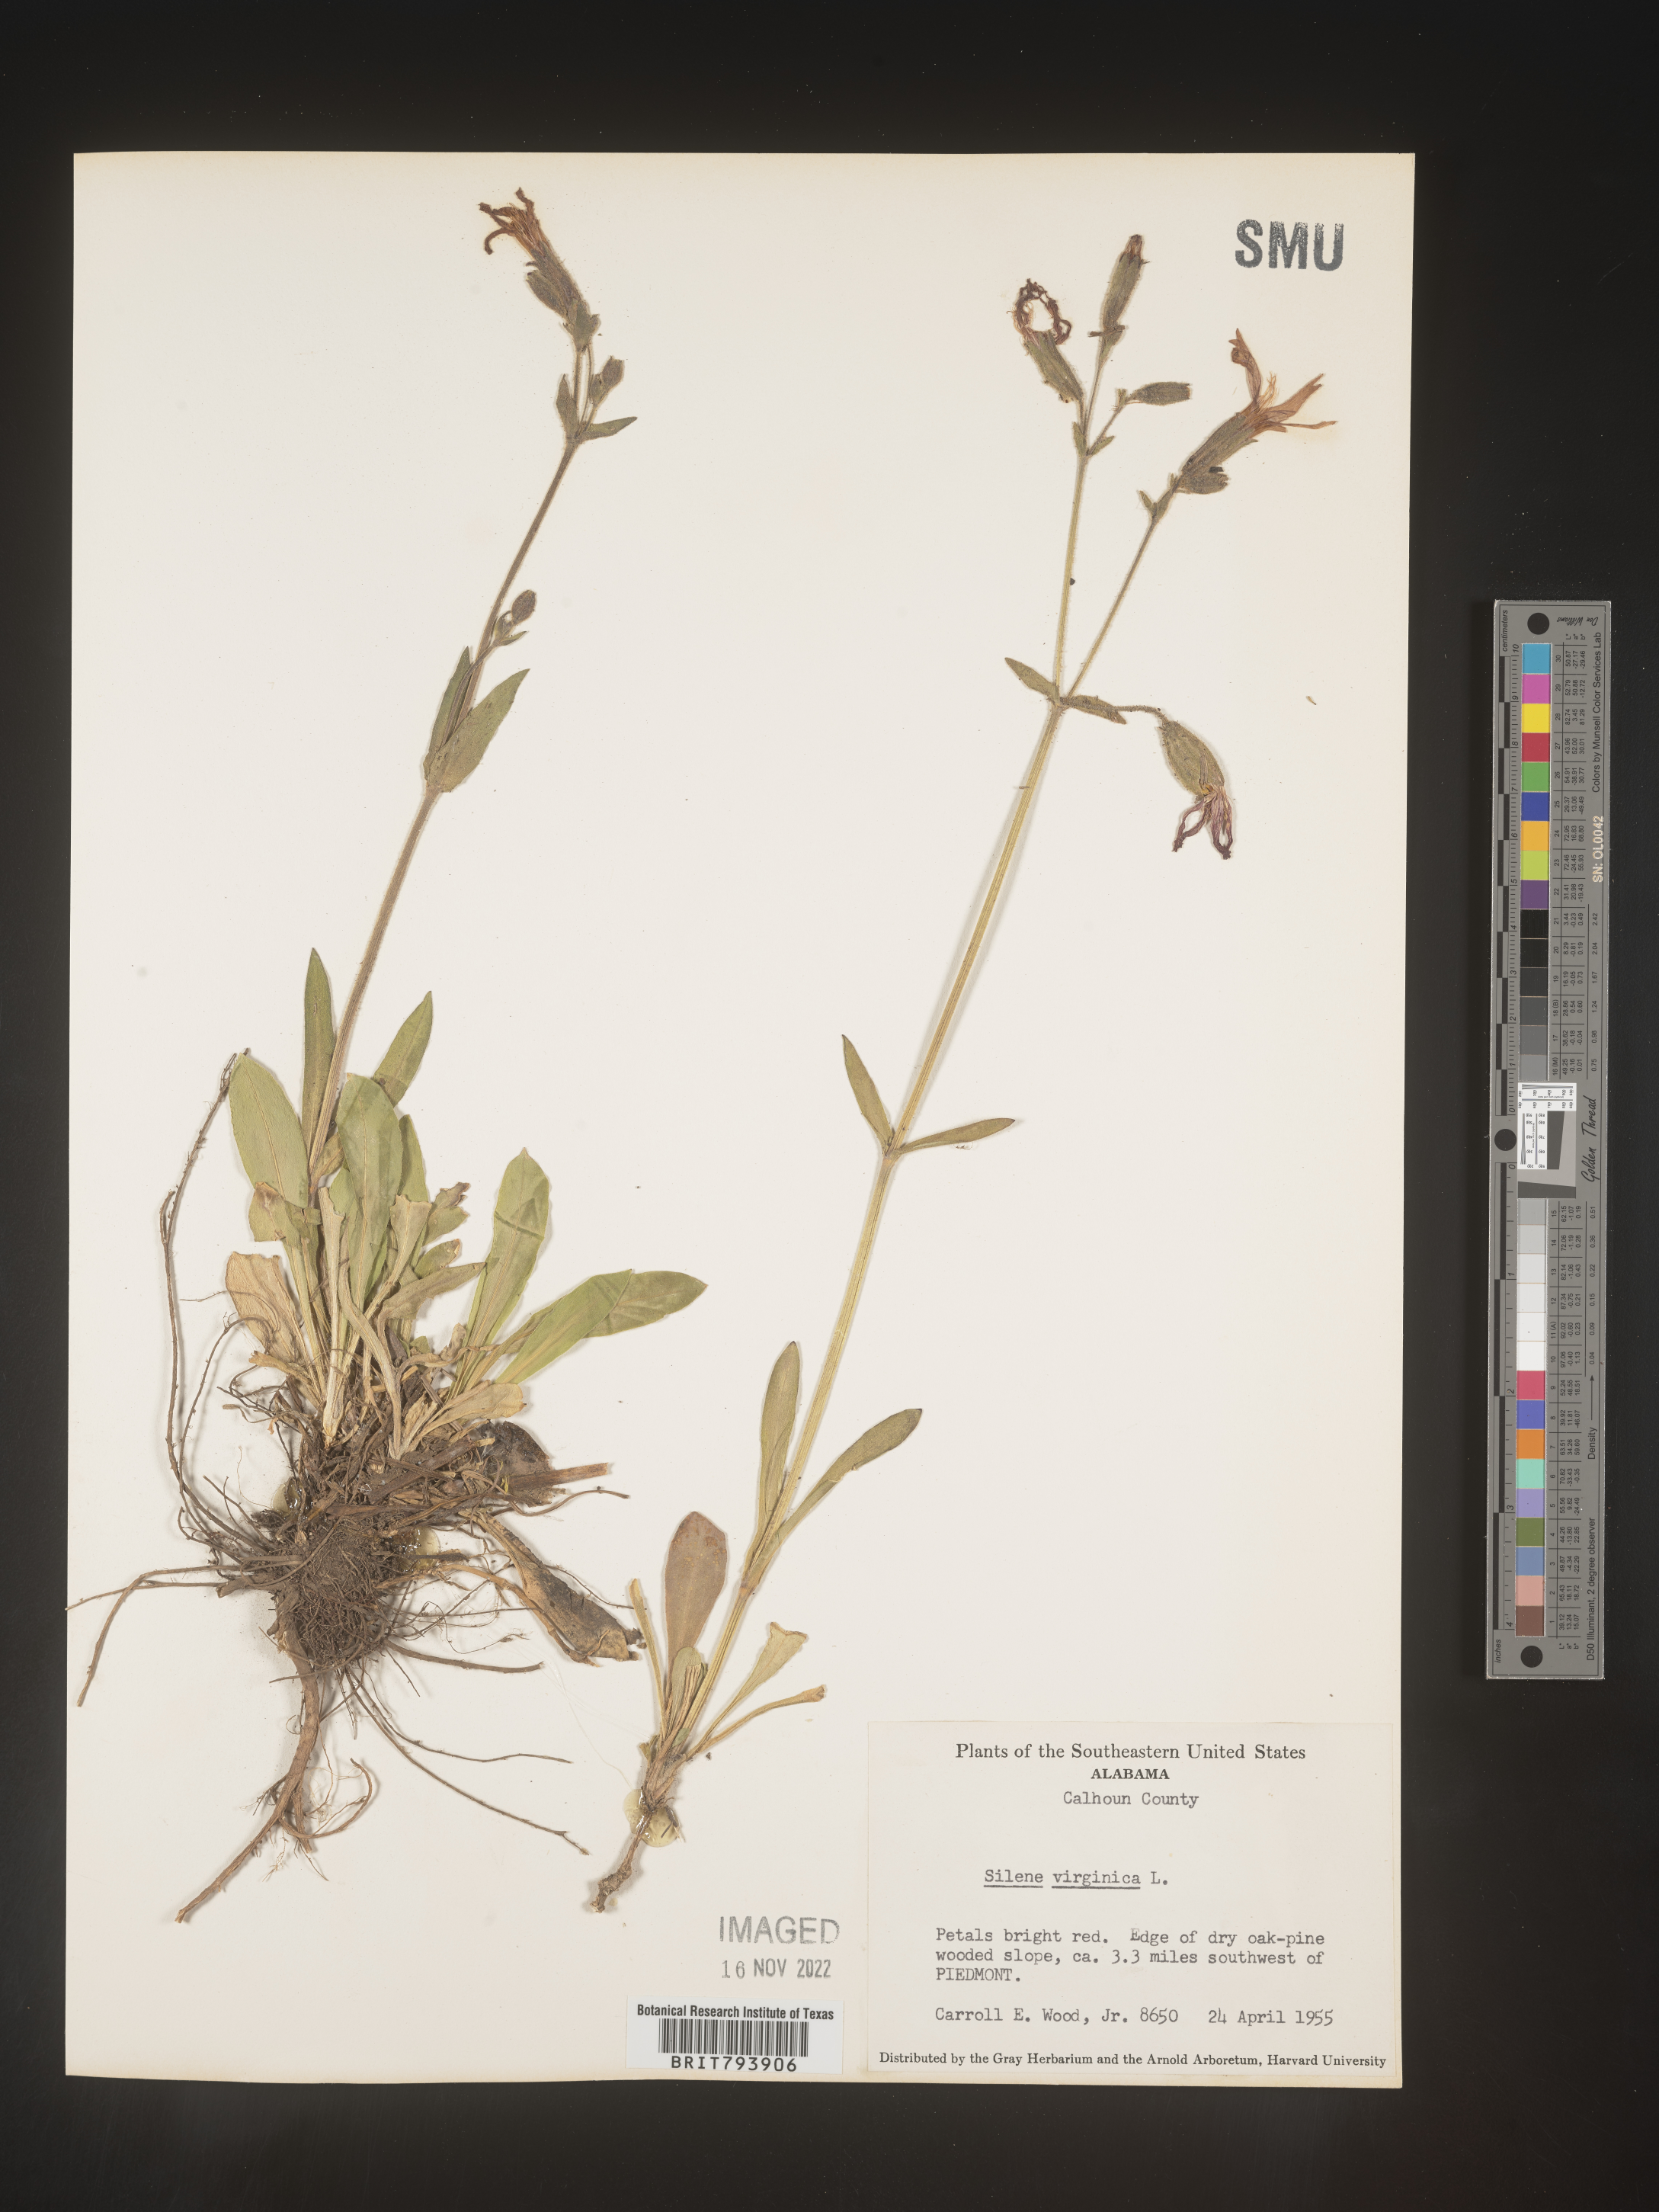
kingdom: Plantae
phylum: Tracheophyta
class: Magnoliopsida
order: Caryophyllales
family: Caryophyllaceae
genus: Silene
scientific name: Silene virginica
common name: Fire-pink
